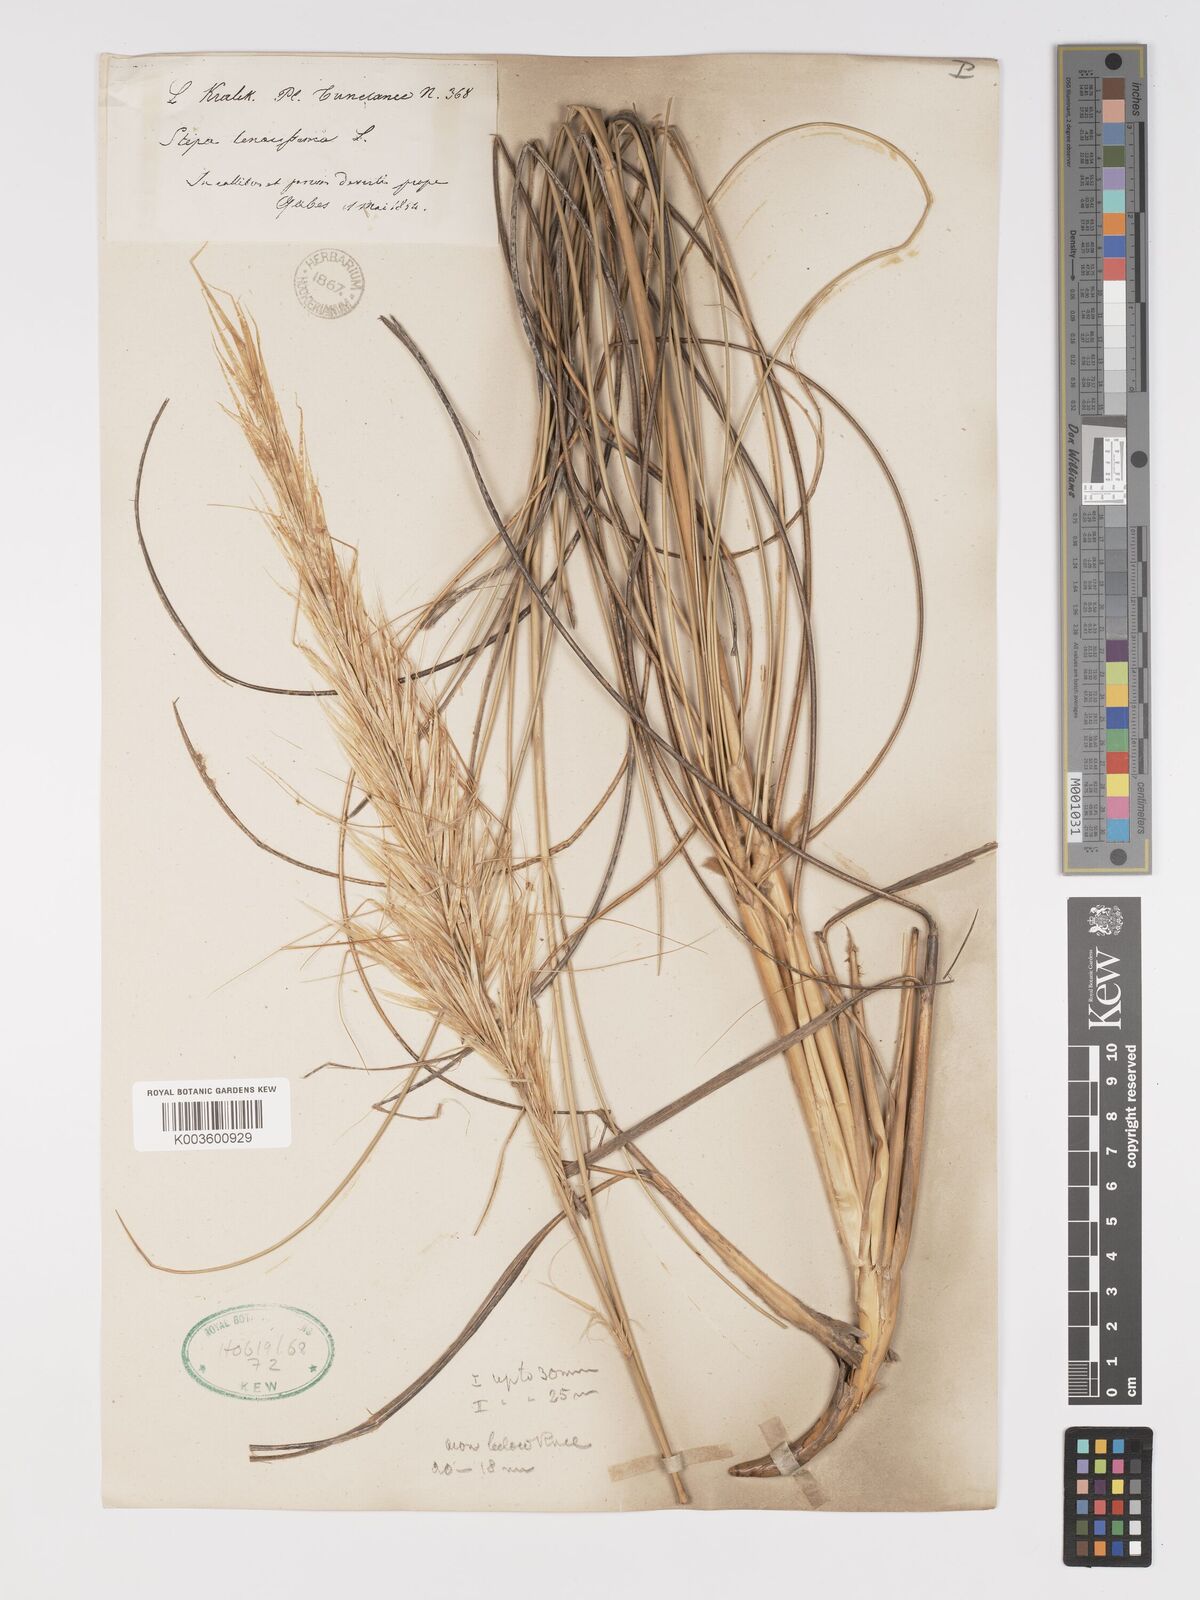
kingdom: Plantae
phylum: Tracheophyta
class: Liliopsida
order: Poales
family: Poaceae
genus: Macrochloa
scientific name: Macrochloa tenacissima
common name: Alfa grass
